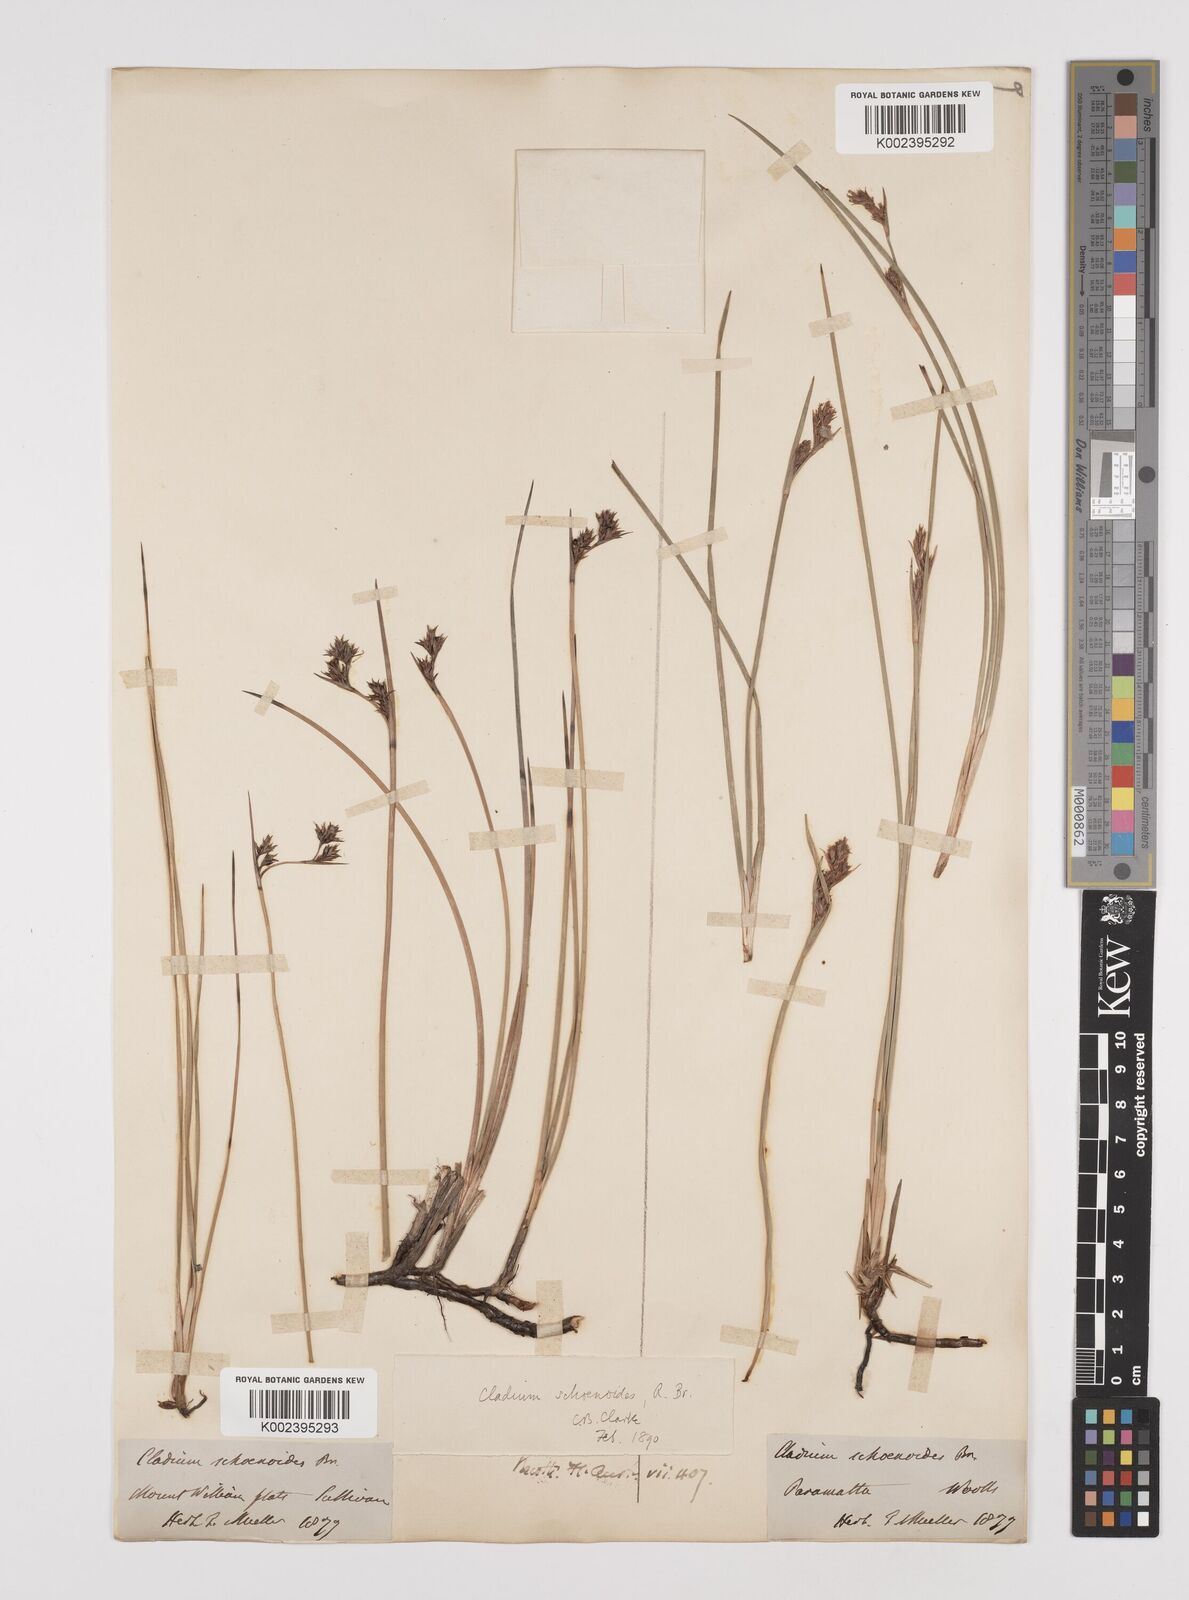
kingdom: Plantae
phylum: Tracheophyta
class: Liliopsida
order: Poales
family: Cyperaceae
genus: Machaerina
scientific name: Machaerina acuta
